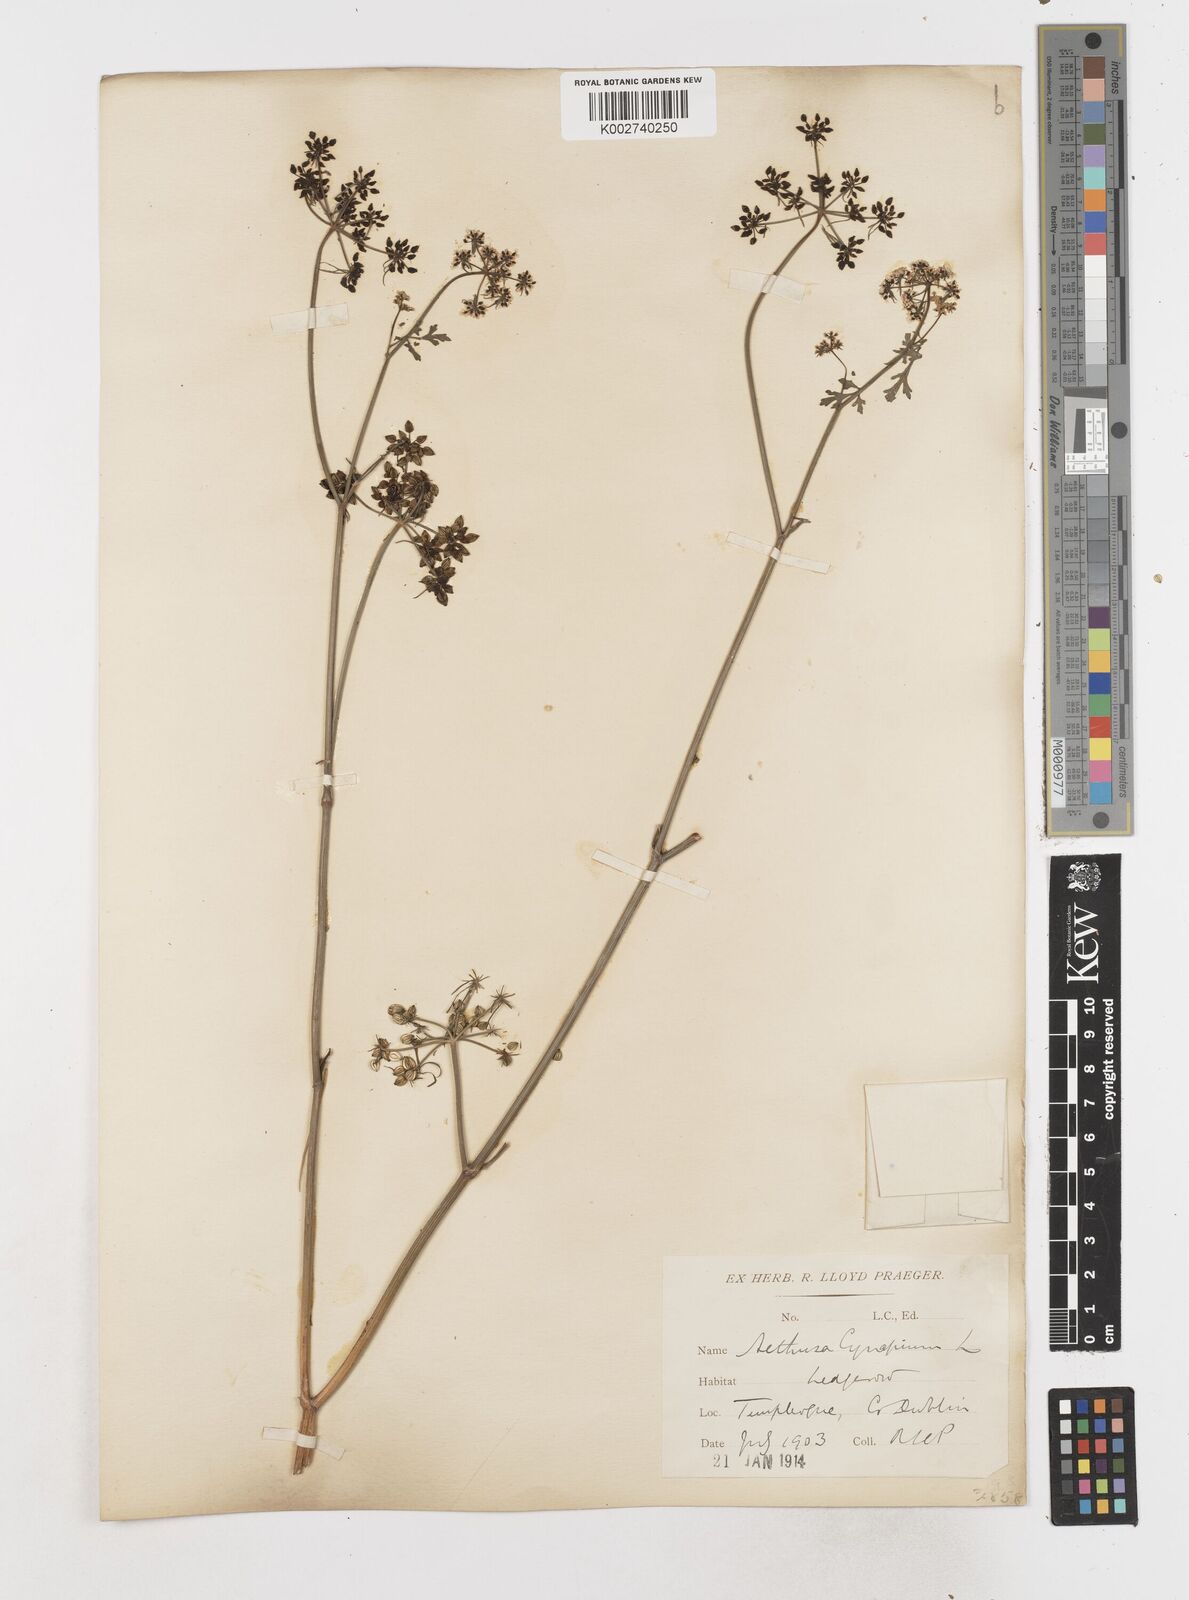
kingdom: Plantae
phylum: Tracheophyta
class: Magnoliopsida
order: Apiales
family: Apiaceae
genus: Aethusa
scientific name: Aethusa cynapium
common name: Fool's parsley
